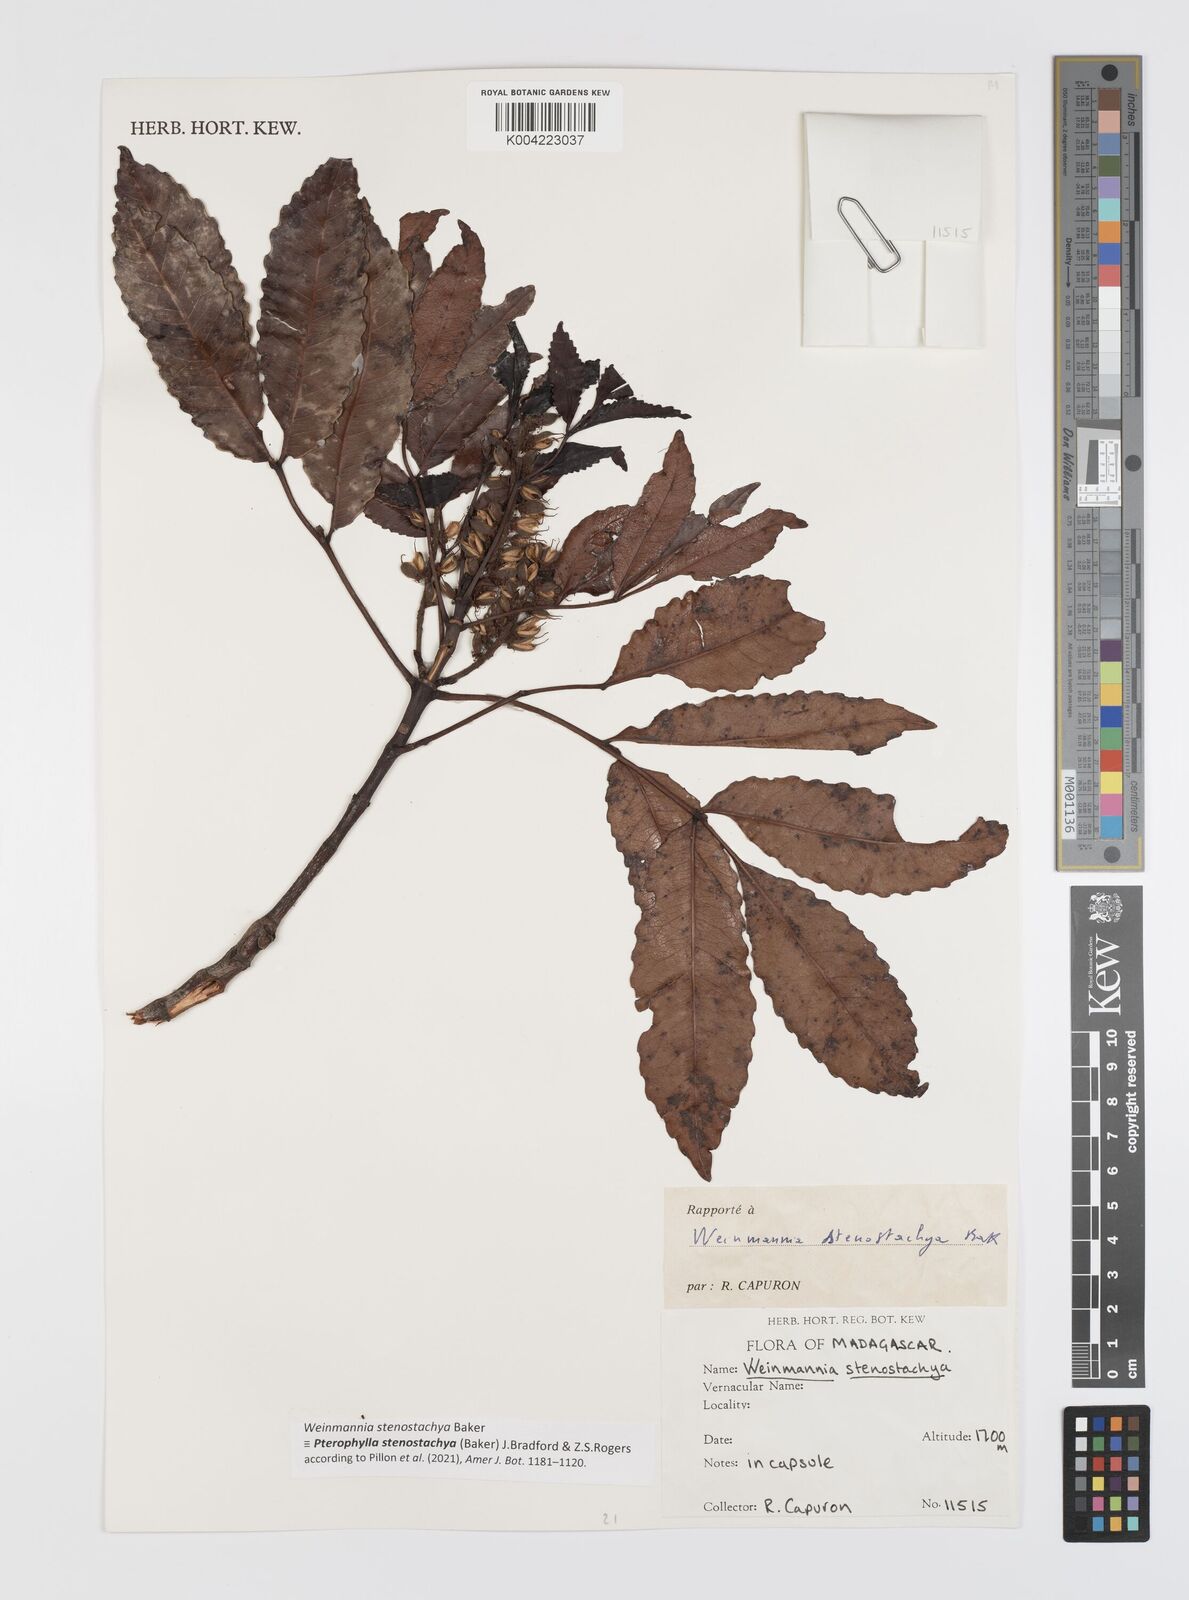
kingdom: Plantae
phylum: Tracheophyta
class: Magnoliopsida
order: Oxalidales
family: Cunoniaceae
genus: Pterophylla
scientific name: Pterophylla stenostachya
